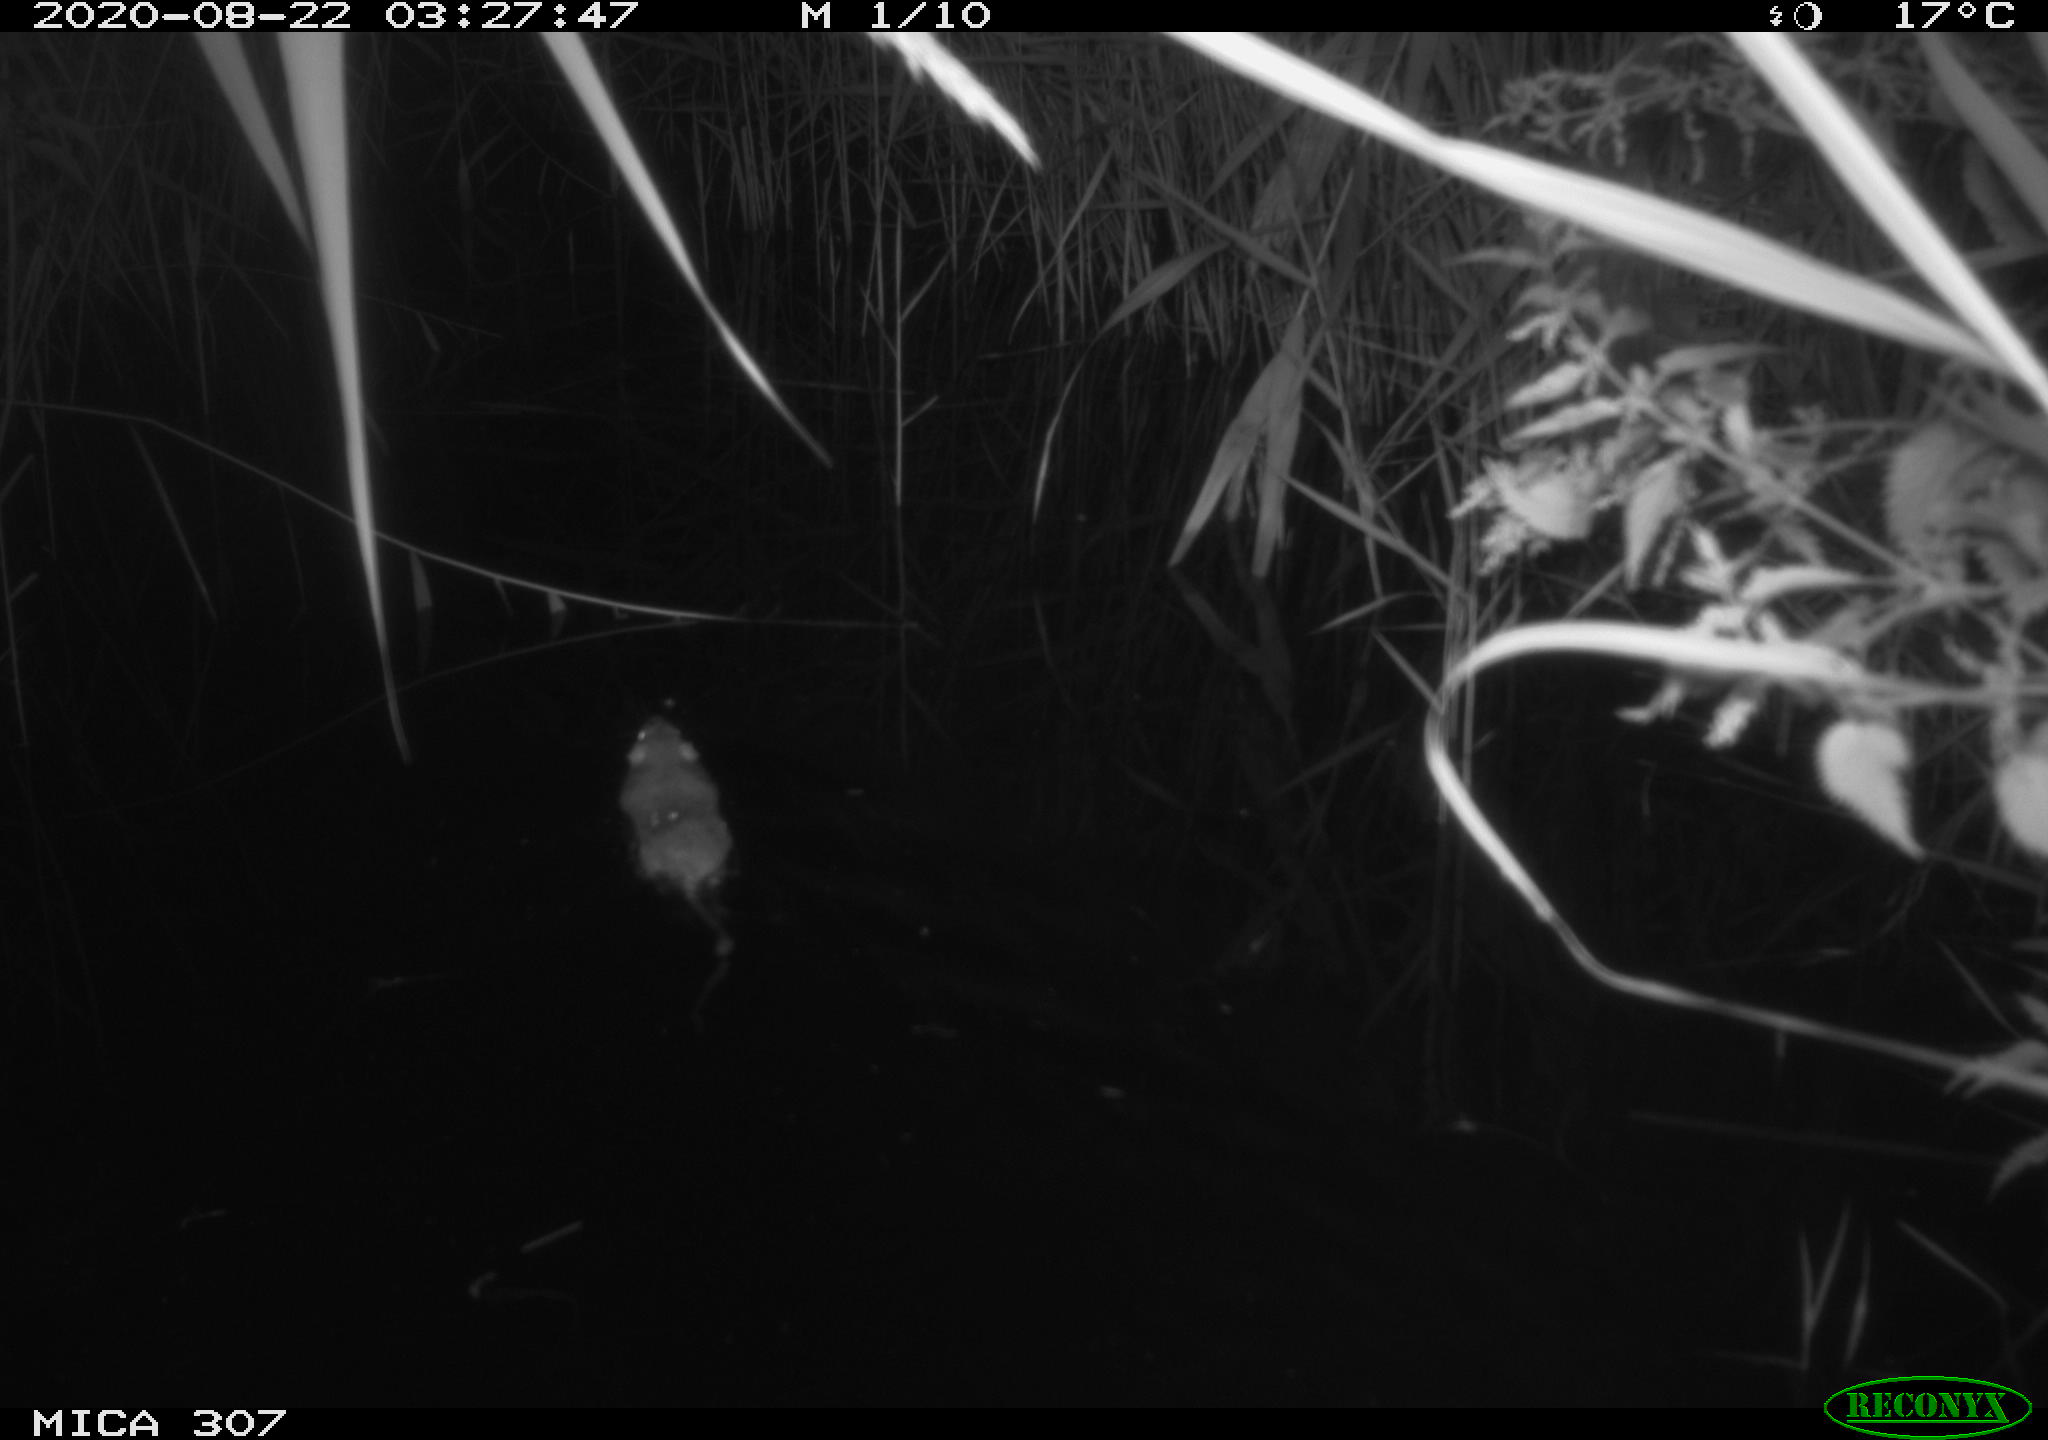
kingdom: Animalia
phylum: Chordata
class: Mammalia
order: Rodentia
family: Muridae
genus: Rattus
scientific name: Rattus norvegicus
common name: Brown rat
